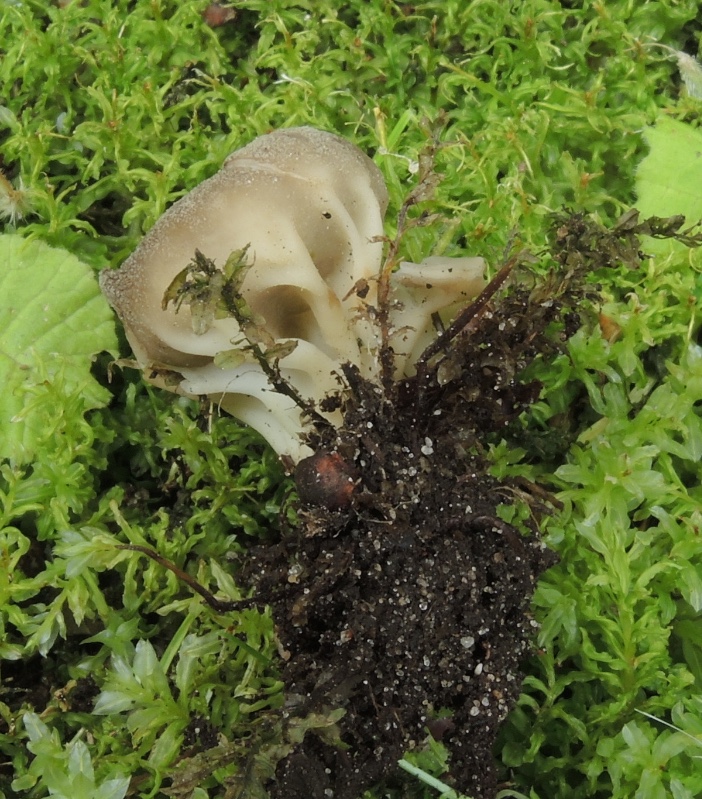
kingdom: Fungi
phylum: Ascomycota
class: Pezizomycetes
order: Pezizales
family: Helvellaceae
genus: Helvella
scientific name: Helvella acetabulum
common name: pokal-foldhat
